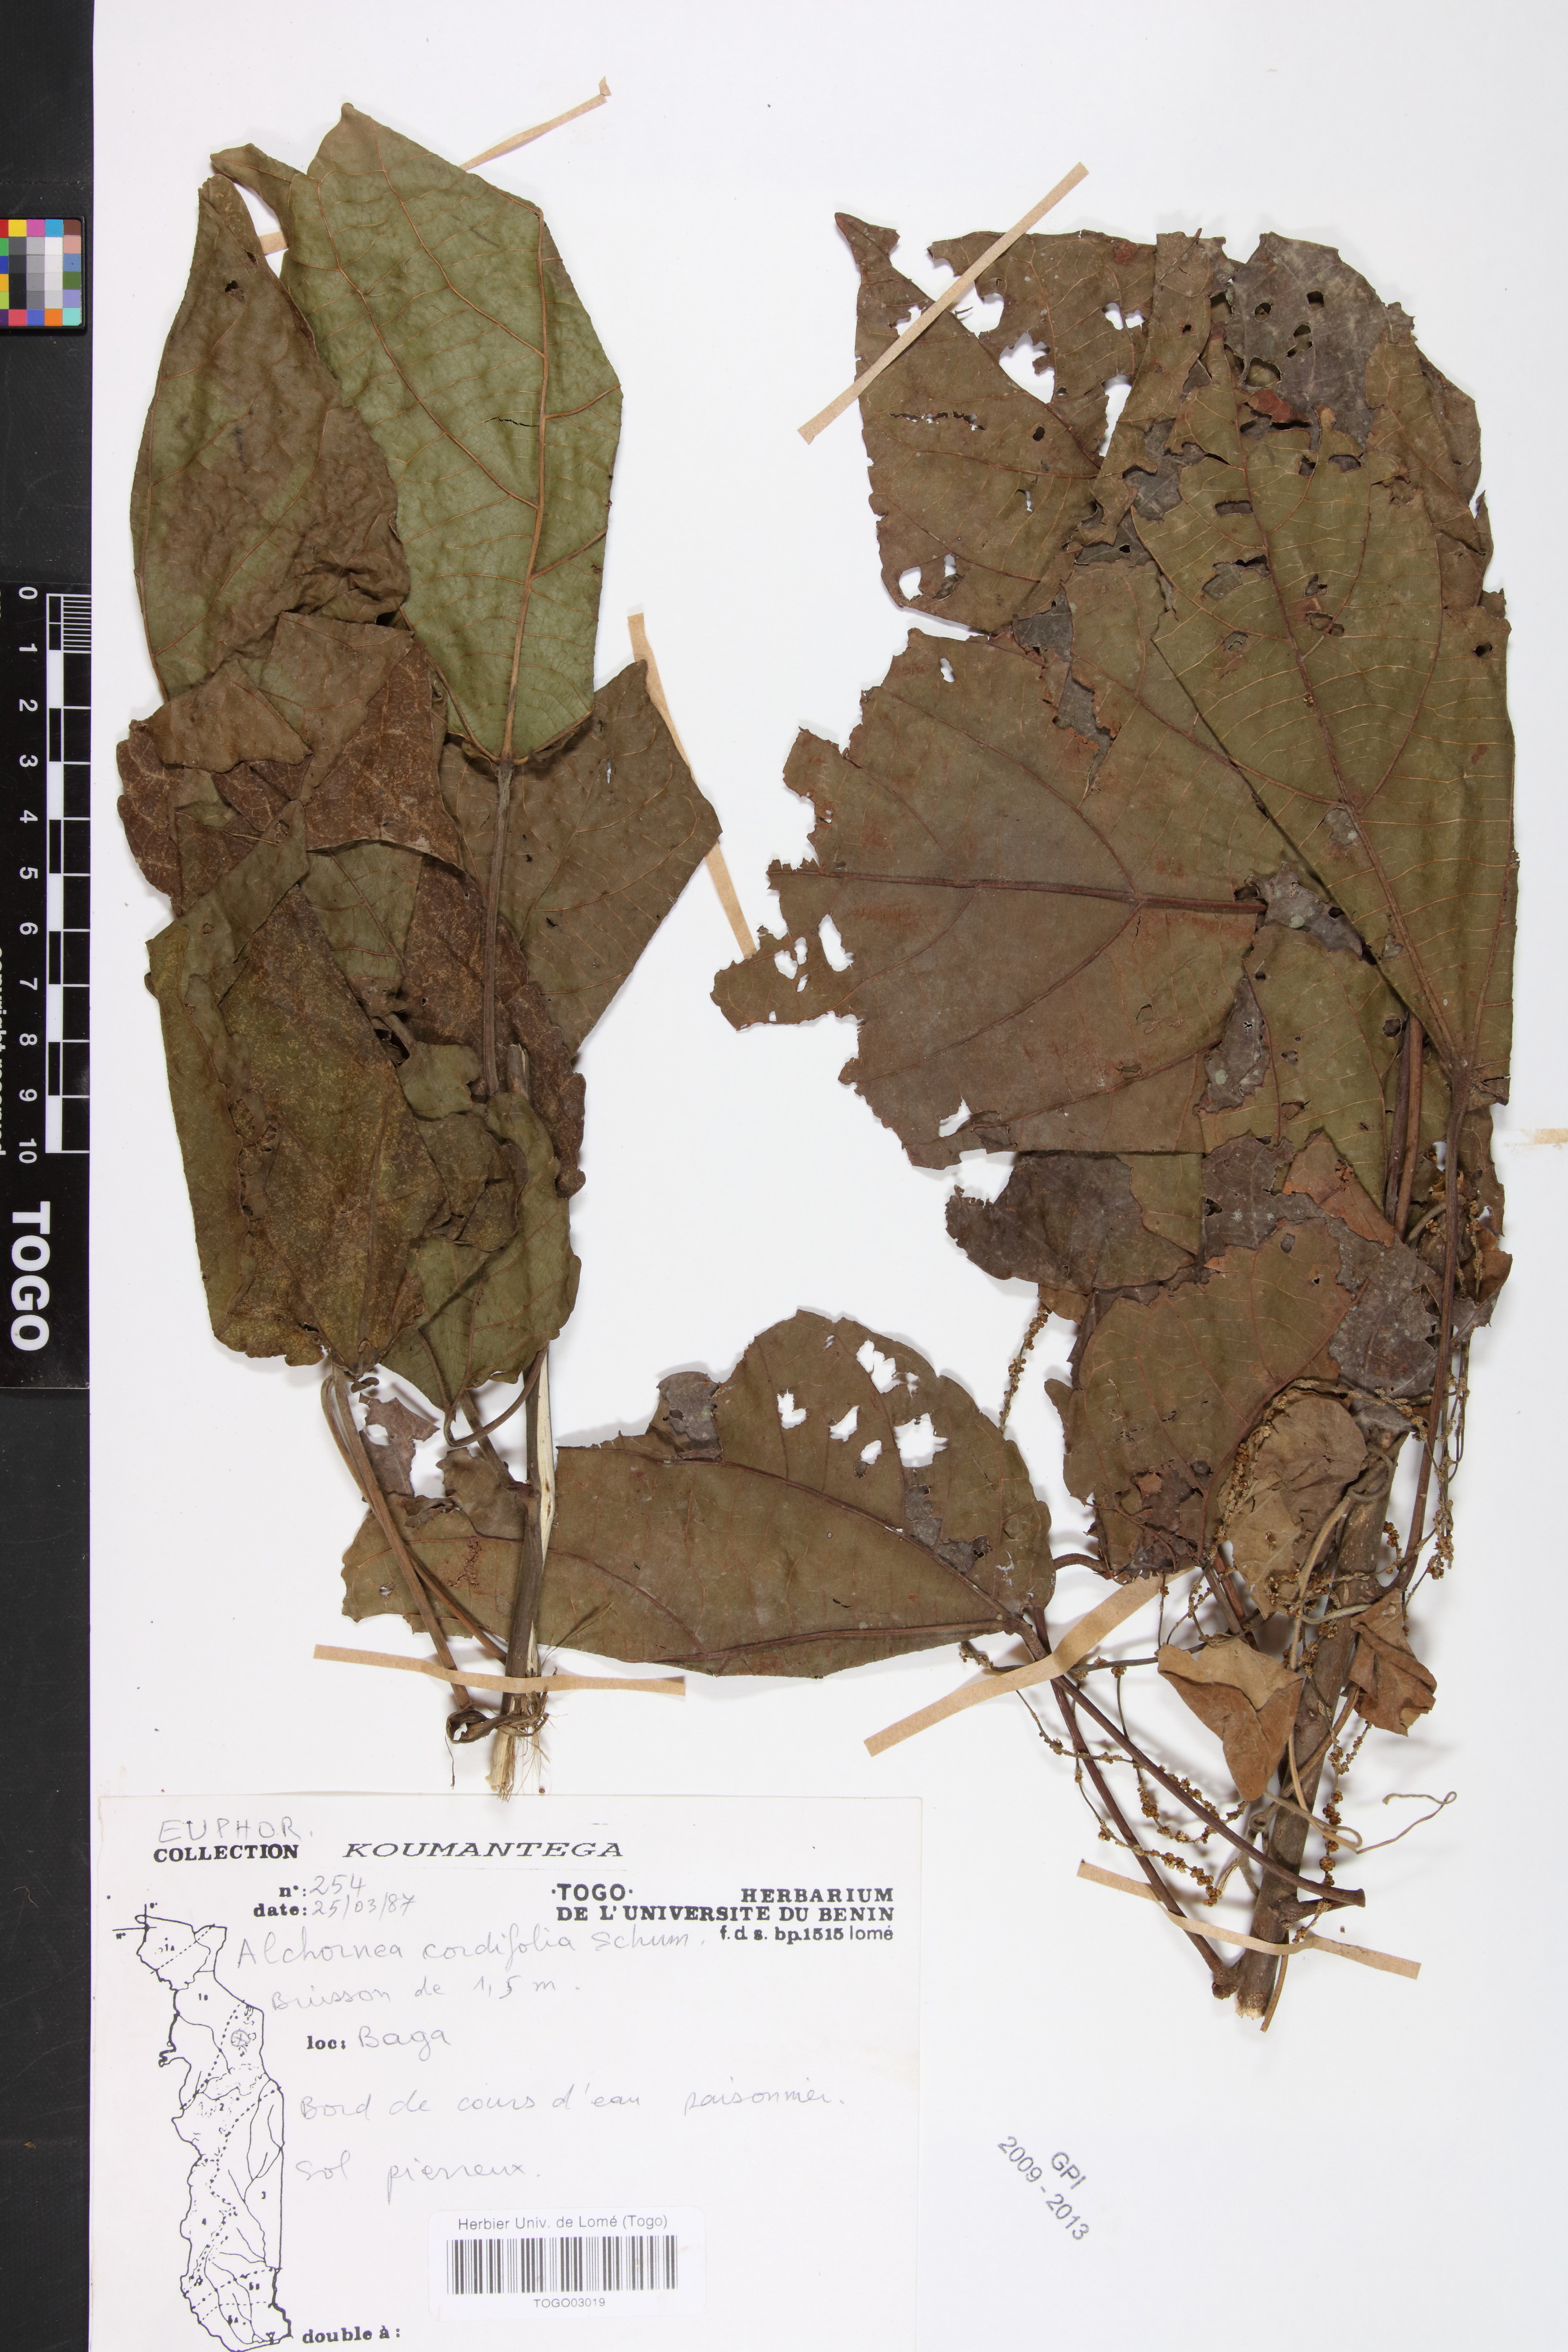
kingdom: Plantae
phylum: Tracheophyta
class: Magnoliopsida
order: Malpighiales
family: Euphorbiaceae
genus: Alchornea
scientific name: Alchornea cordifolia
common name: Christmasbush
